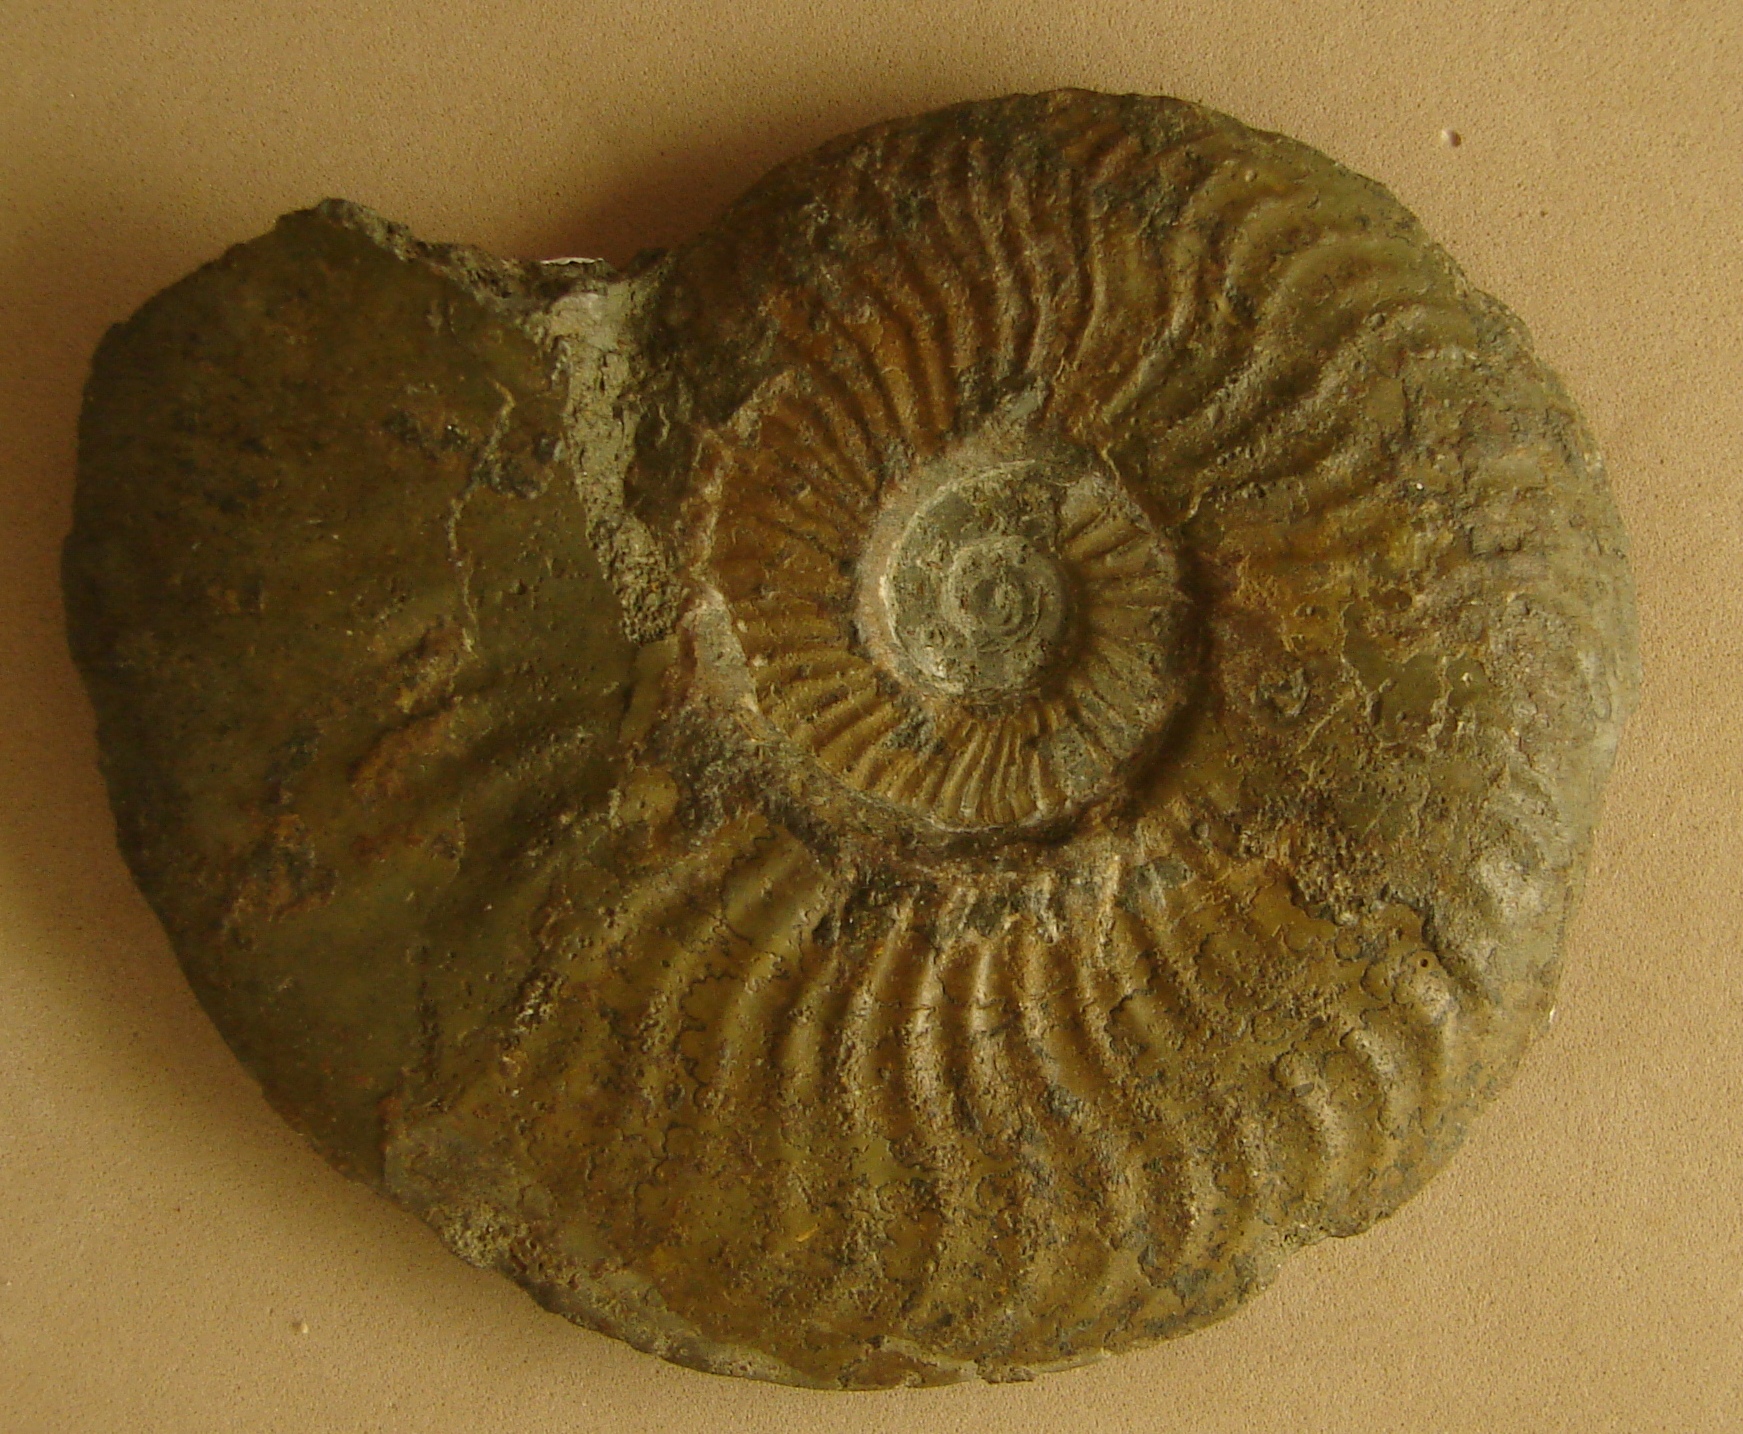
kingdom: Animalia
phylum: Mollusca
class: Cephalopoda
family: Hildoceratidae
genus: Pleydellia
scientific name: Pleydellia
